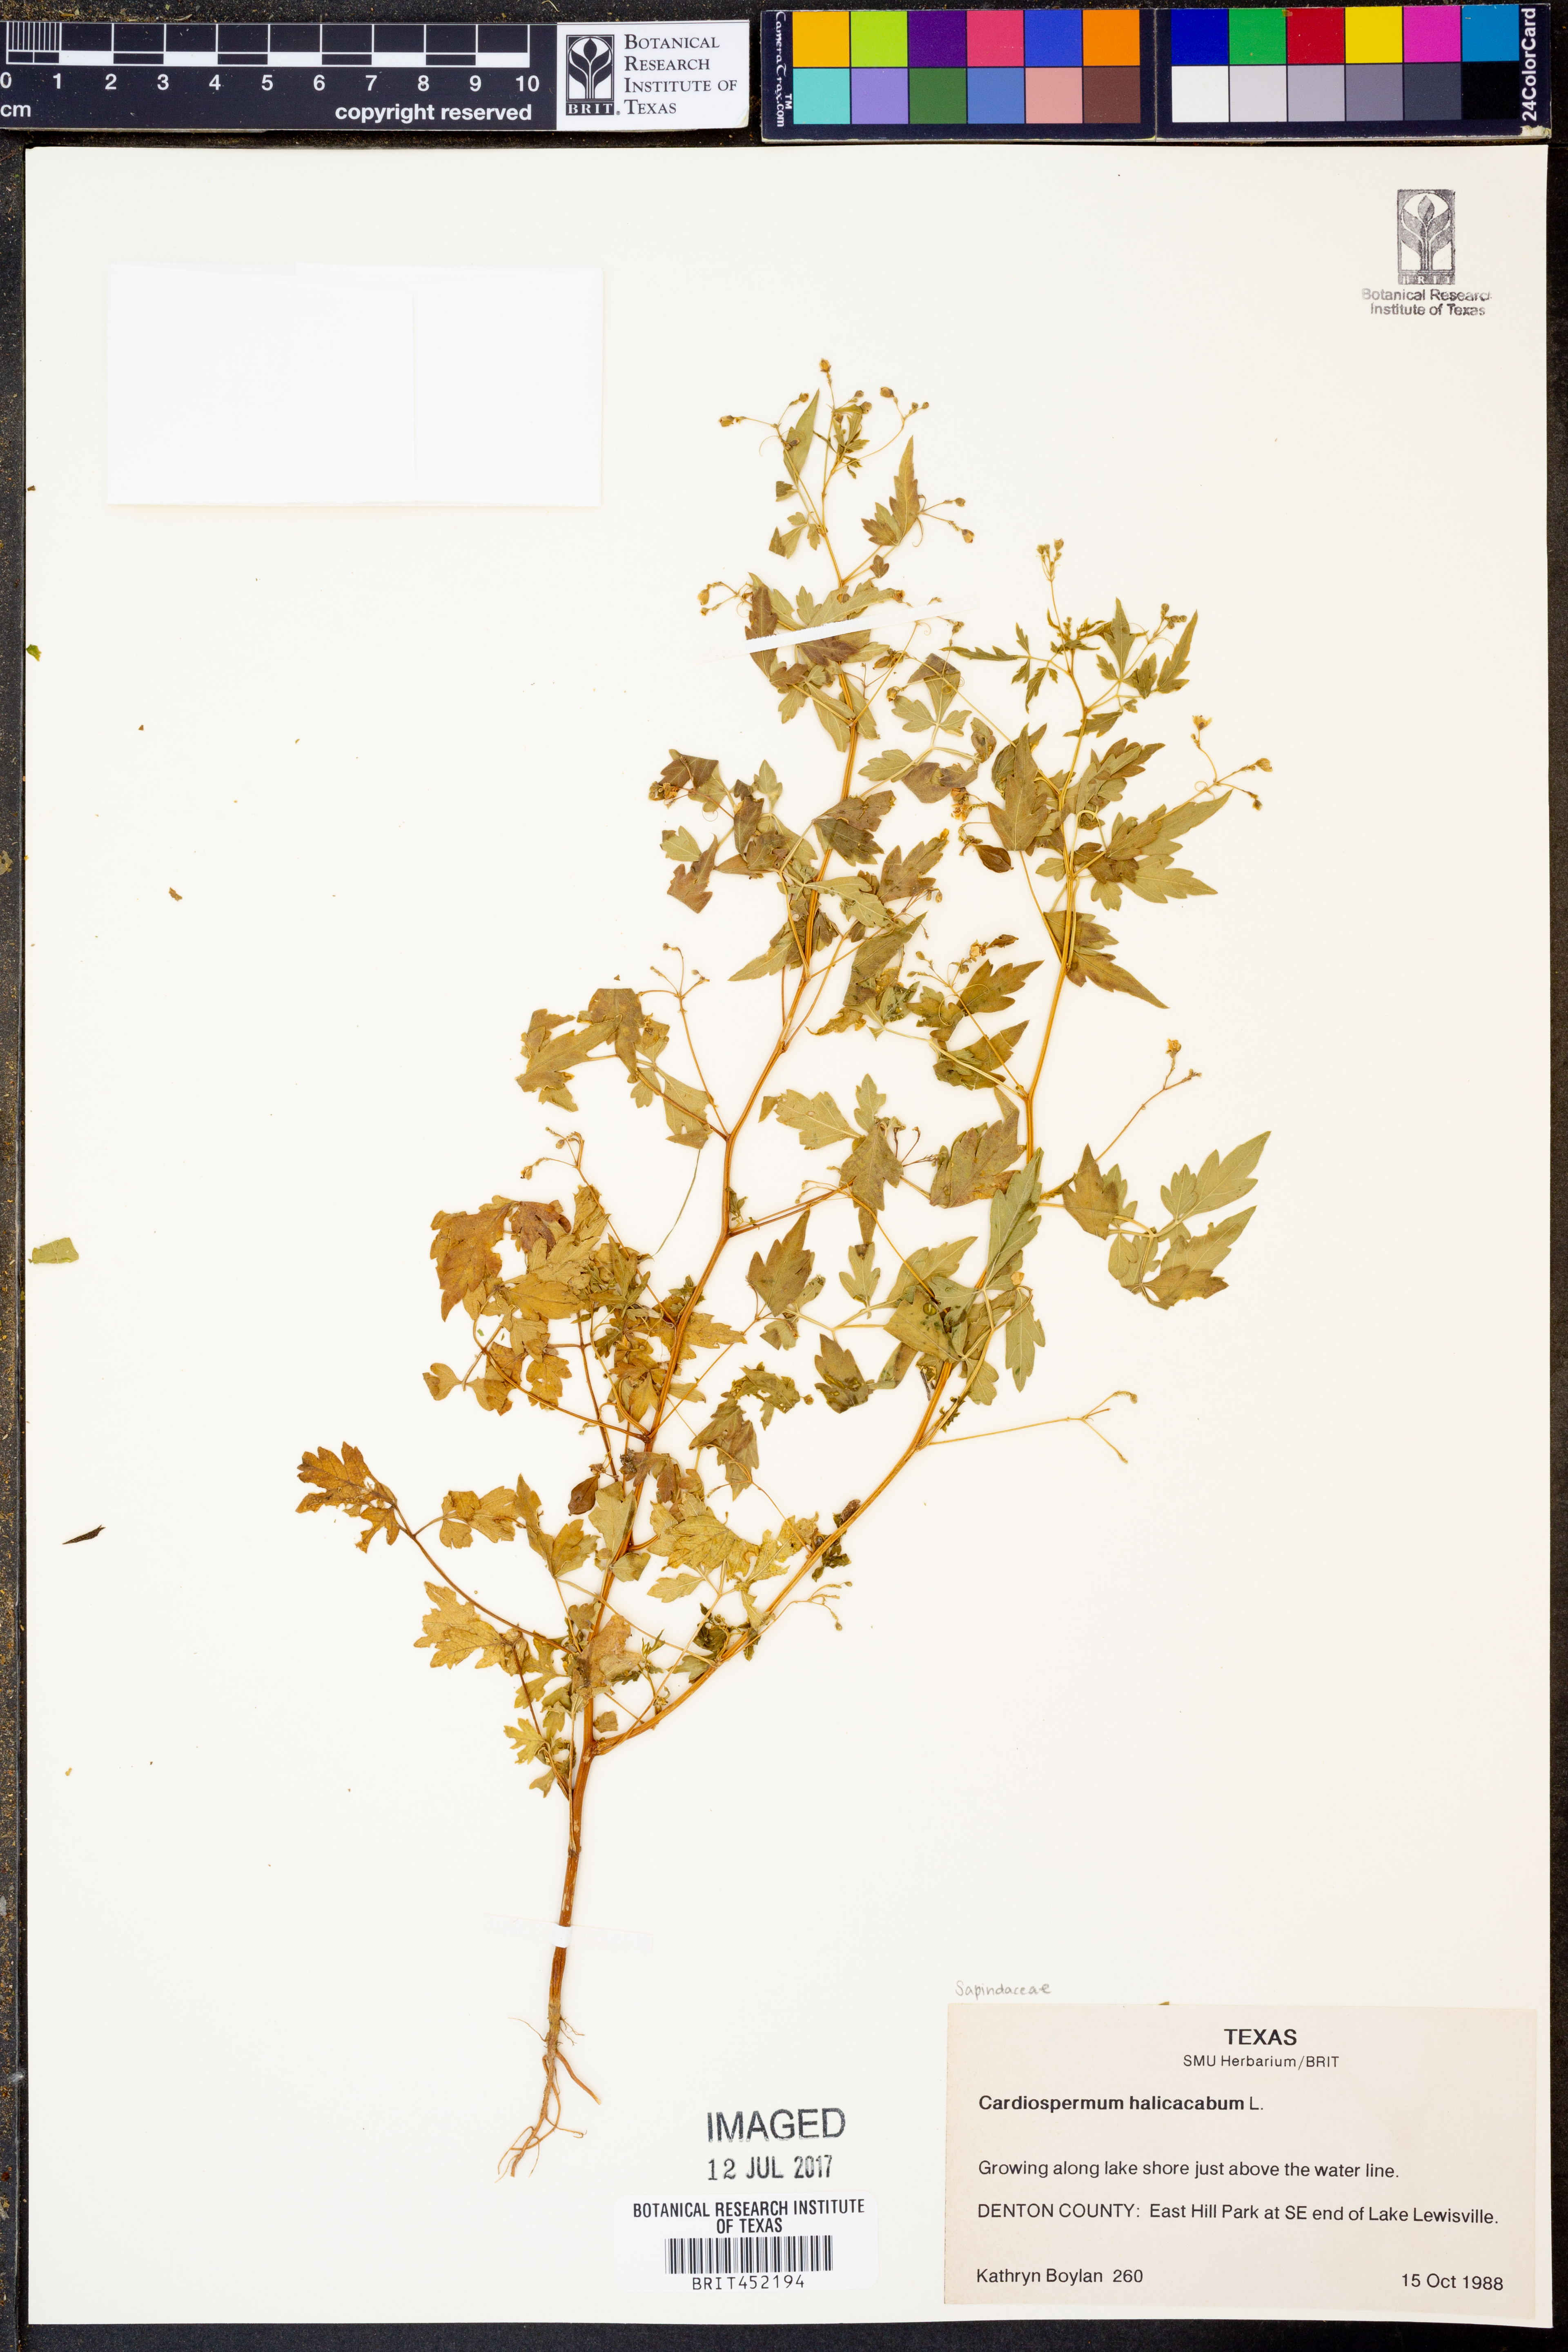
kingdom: Plantae
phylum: Tracheophyta
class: Magnoliopsida
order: Sapindales
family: Sapindaceae
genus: Cardiospermum
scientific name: Cardiospermum halicacabum
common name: Balloon vine
